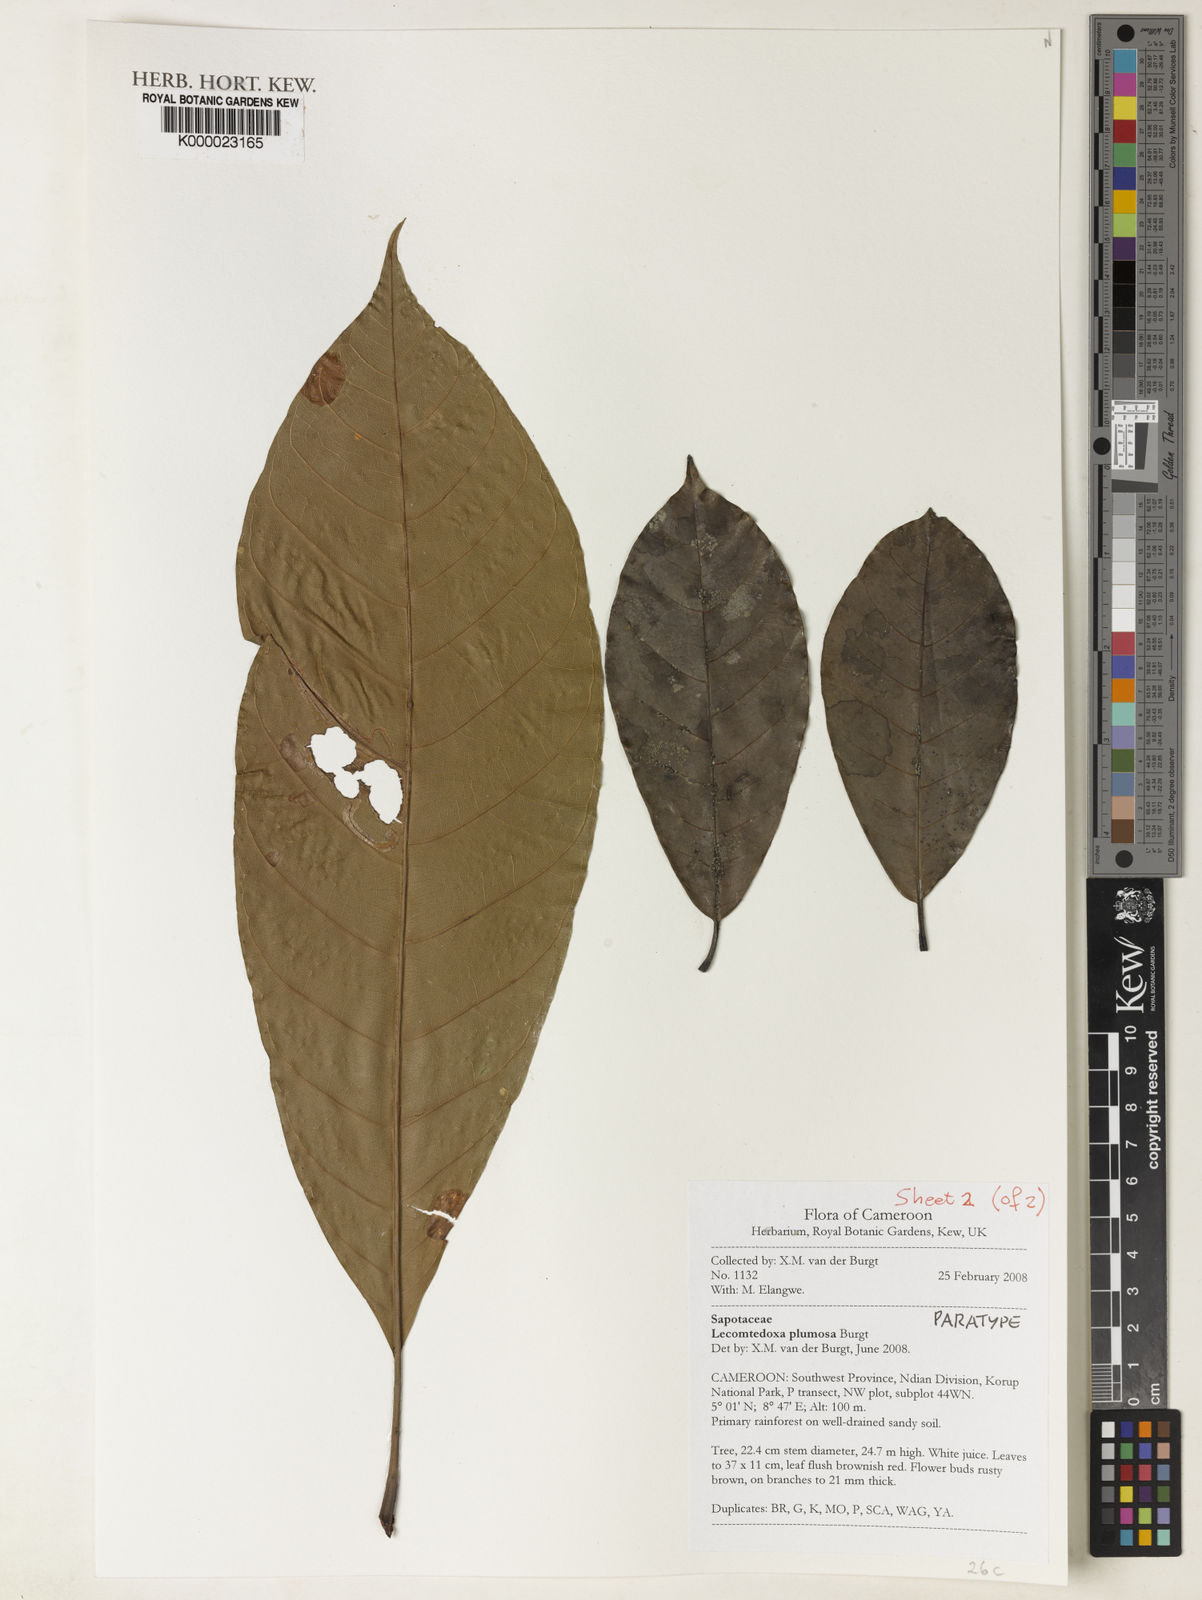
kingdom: Plantae
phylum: Tracheophyta
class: Magnoliopsida
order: Ericales
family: Sapotaceae
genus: Lecomtedoxa
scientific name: Lecomtedoxa plumosa
